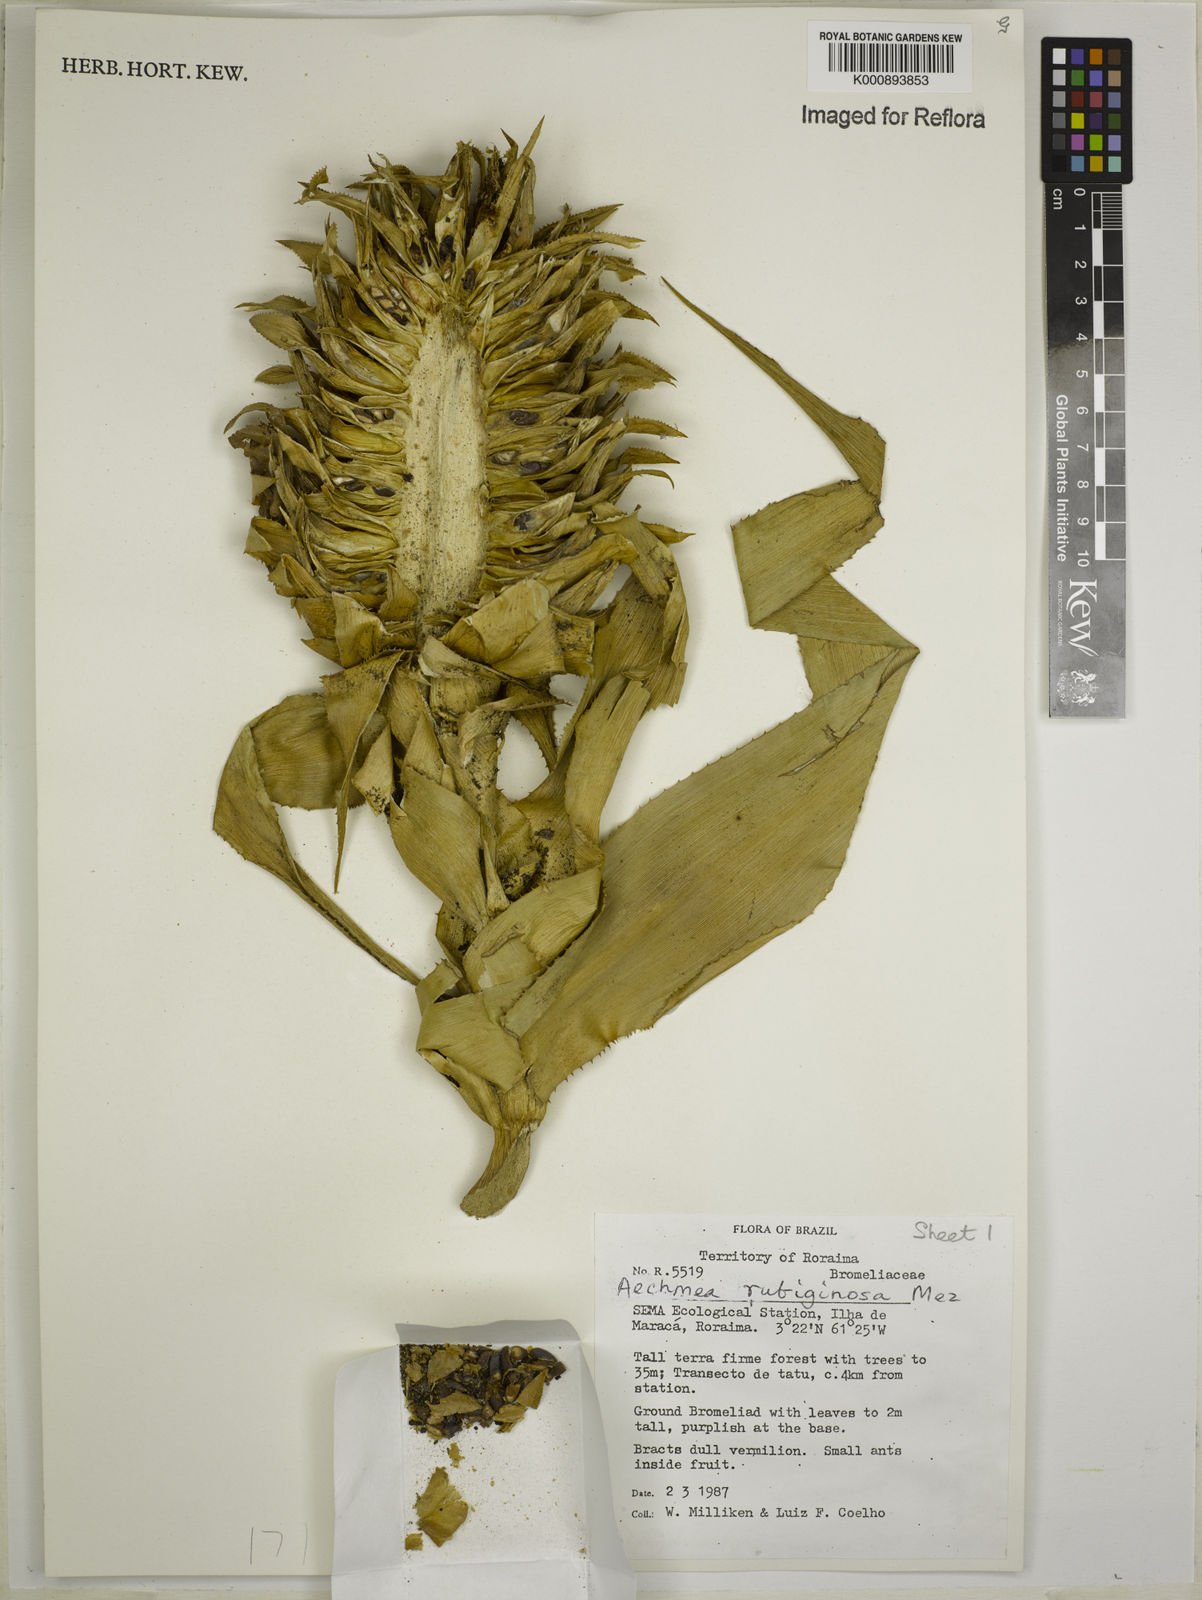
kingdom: Plantae
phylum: Tracheophyta
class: Liliopsida
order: Poales
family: Bromeliaceae
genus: Aechmea
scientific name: Aechmea rubiginosa
